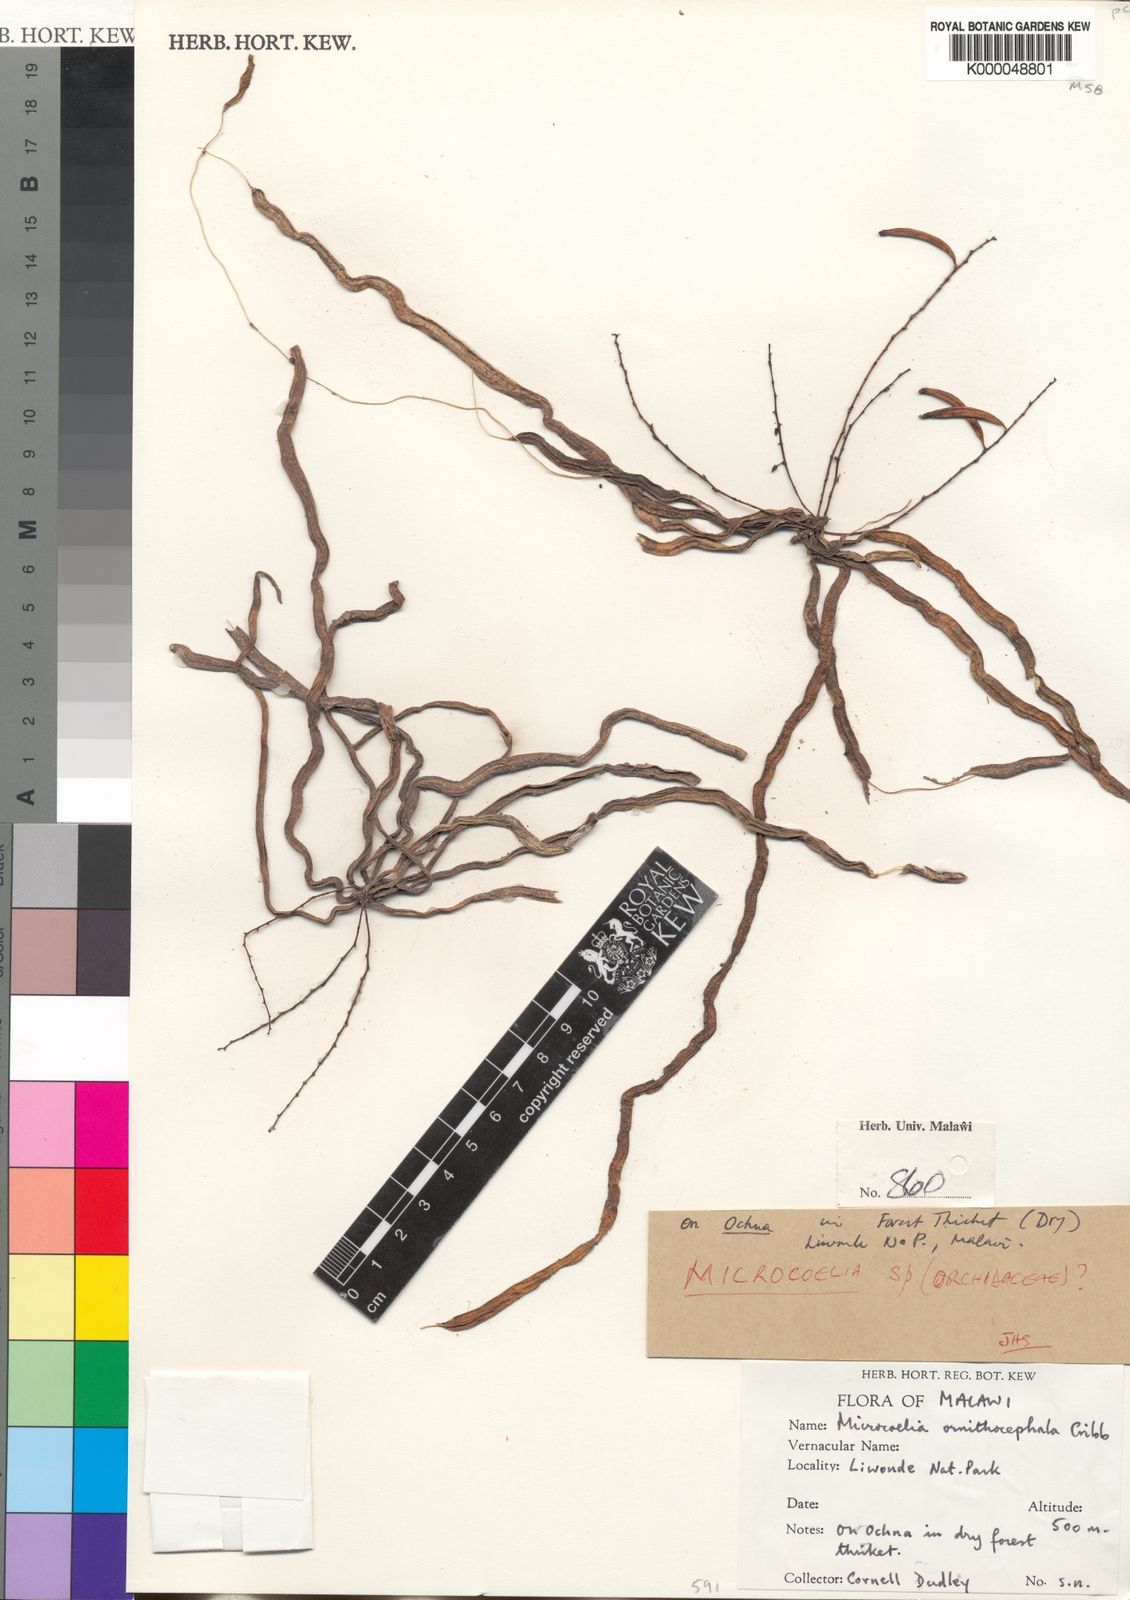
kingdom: Plantae
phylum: Tracheophyta
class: Liliopsida
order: Asparagales
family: Orchidaceae
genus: Microcoelia
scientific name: Microcoelia ornithocephala
